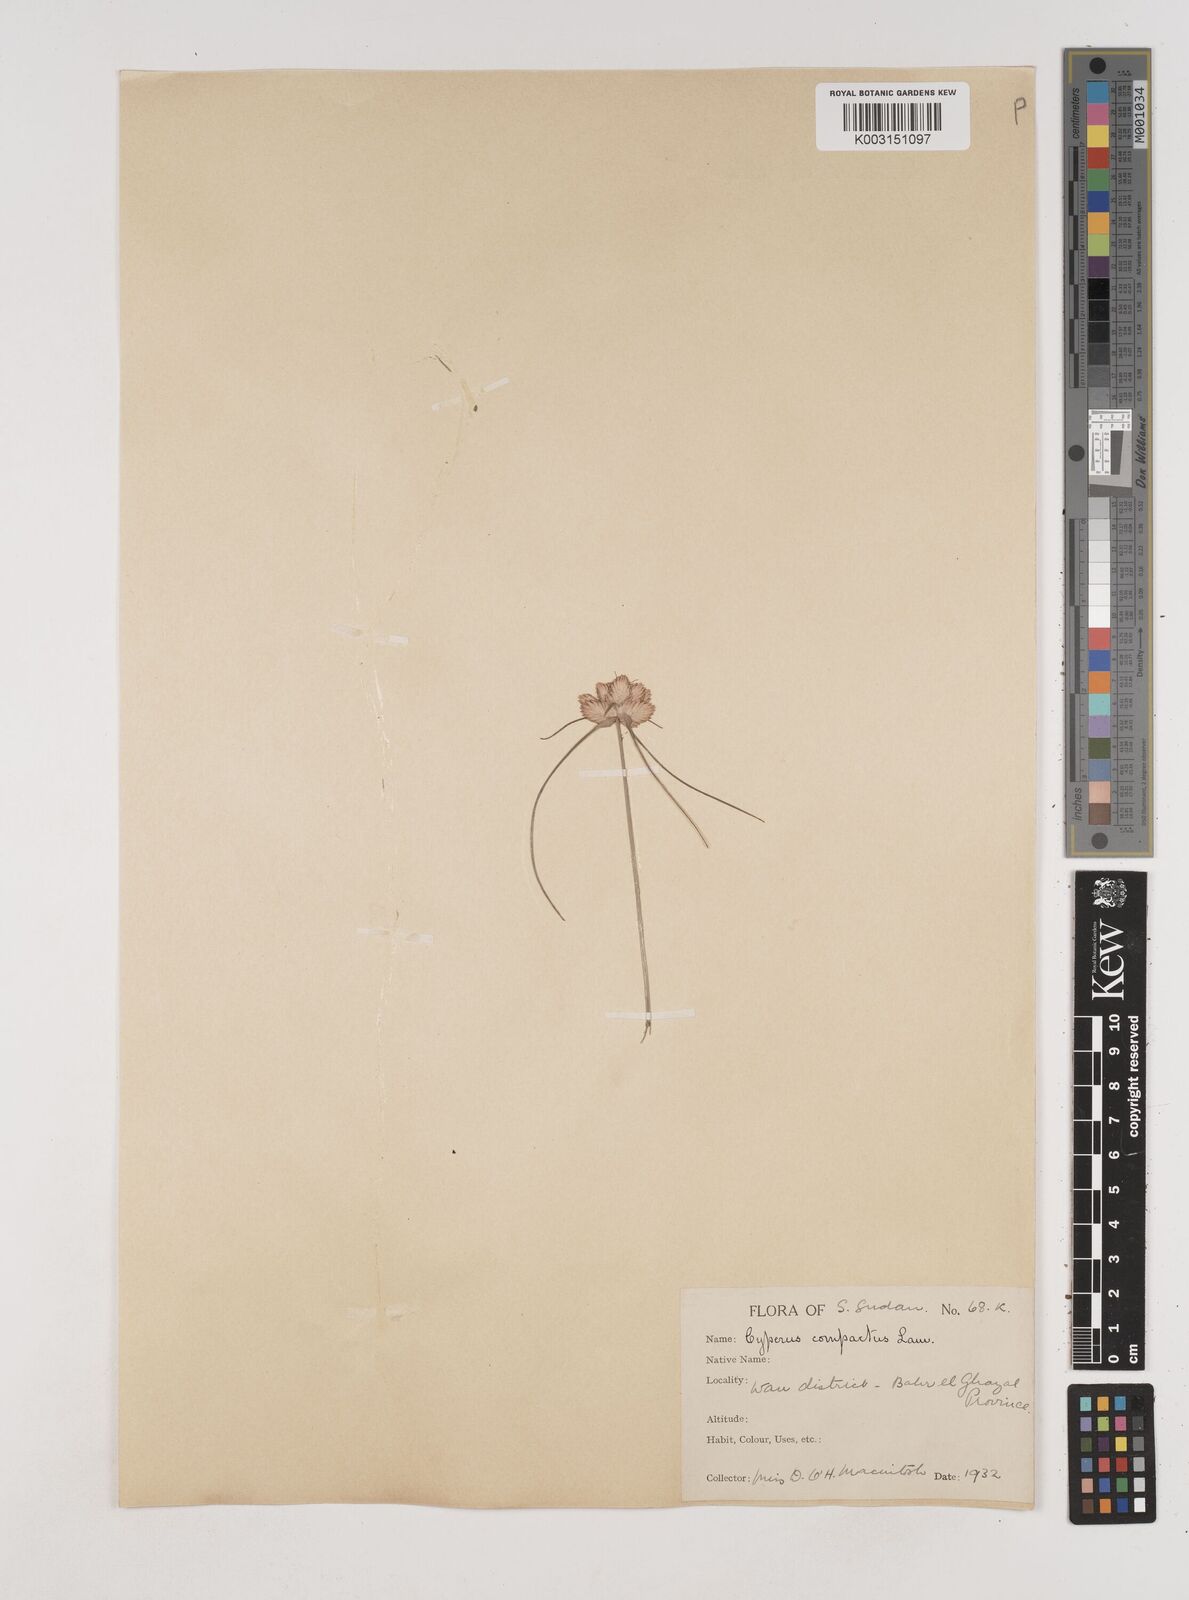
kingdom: Plantae
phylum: Tracheophyta
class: Liliopsida
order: Poales
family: Cyperaceae
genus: Cyperus
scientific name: Cyperus niveus
